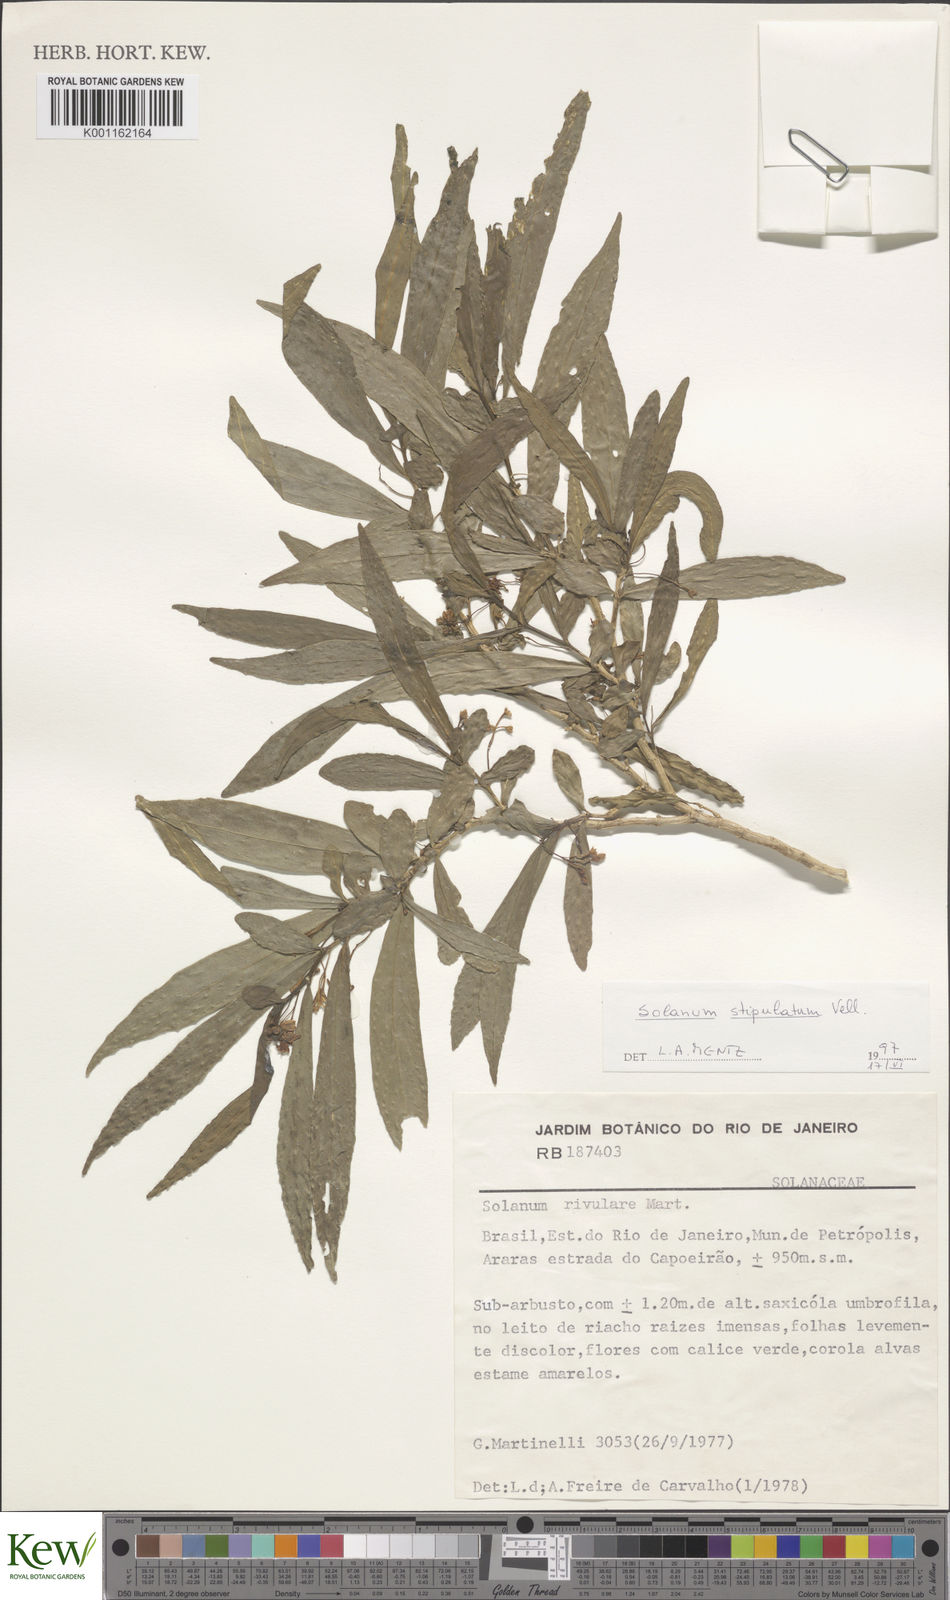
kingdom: Plantae
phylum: Tracheophyta
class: Magnoliopsida
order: Solanales
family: Solanaceae
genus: Solanum
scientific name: Solanum stipulatum
